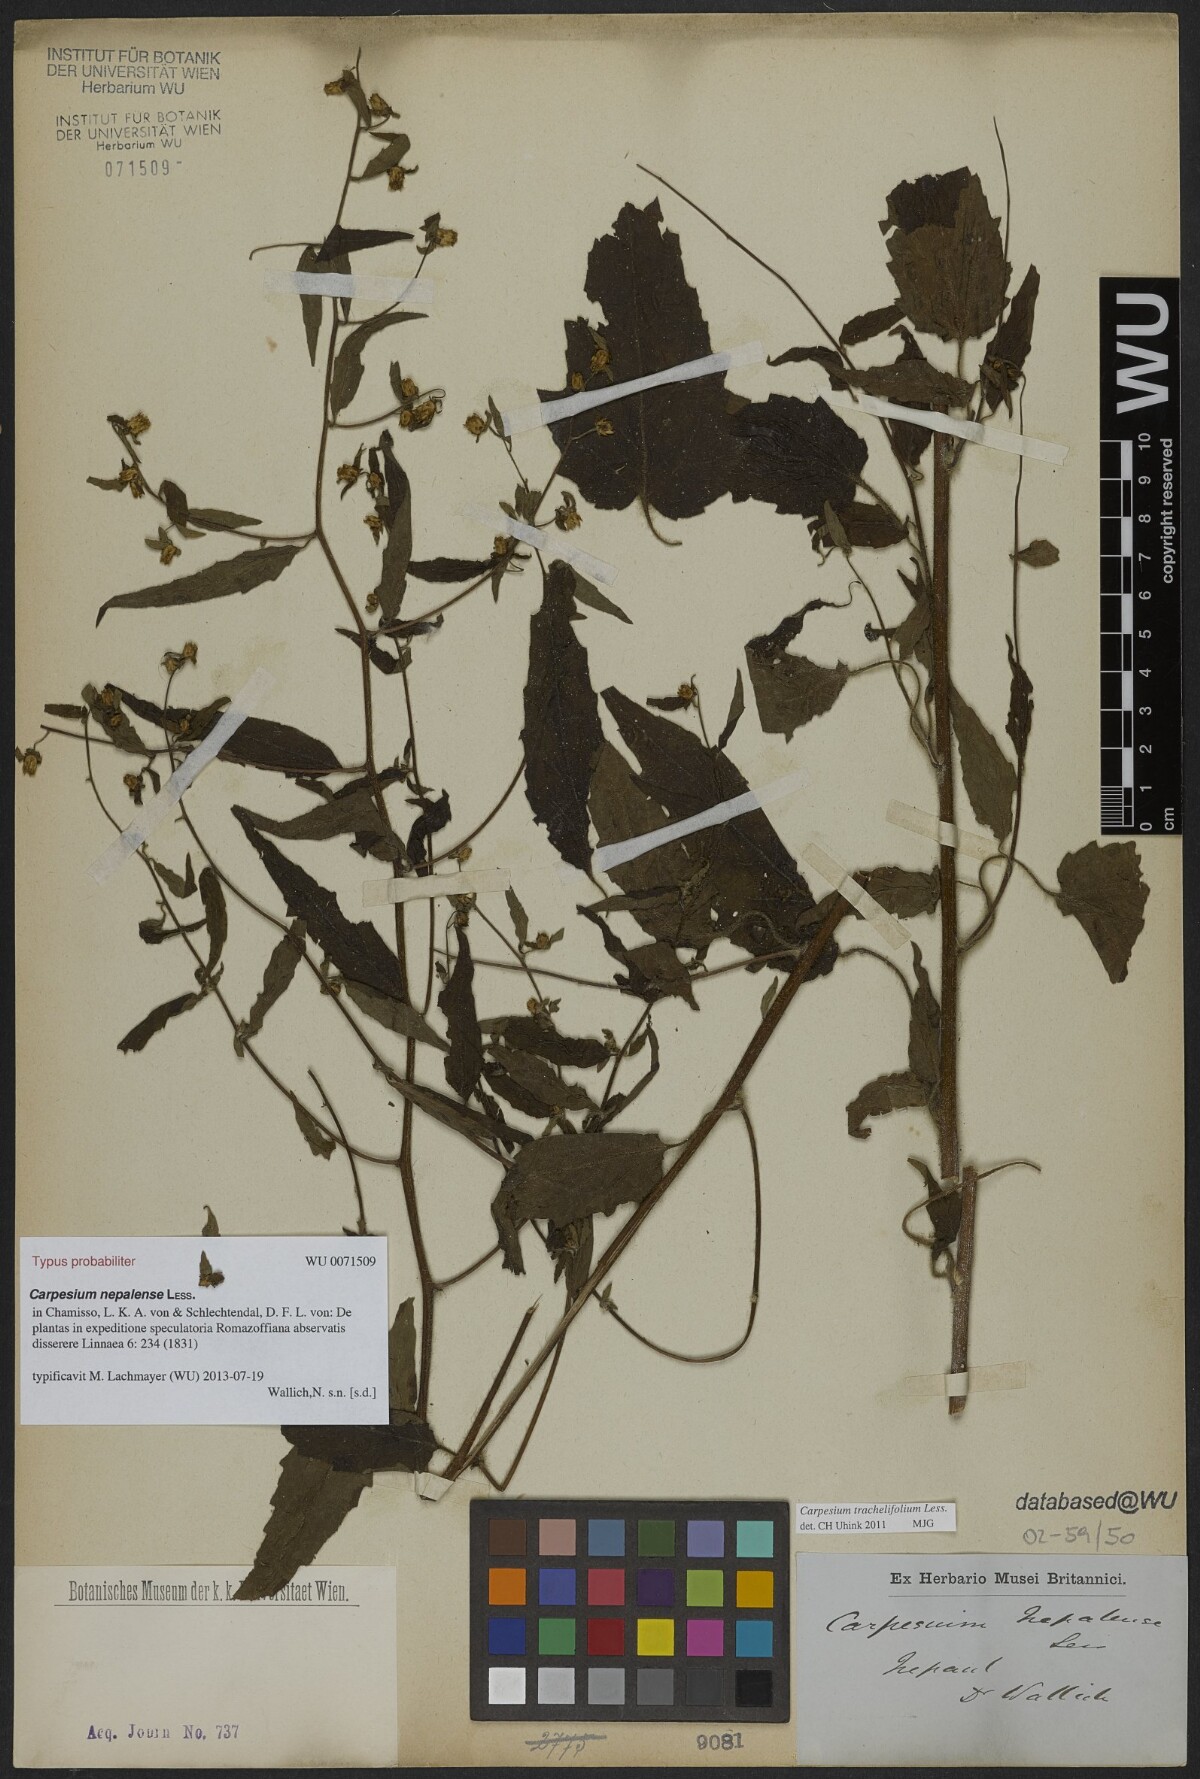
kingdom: Plantae
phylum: Tracheophyta
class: Magnoliopsida
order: Asterales
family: Asteraceae
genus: Carpesium
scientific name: Carpesium nepalense
